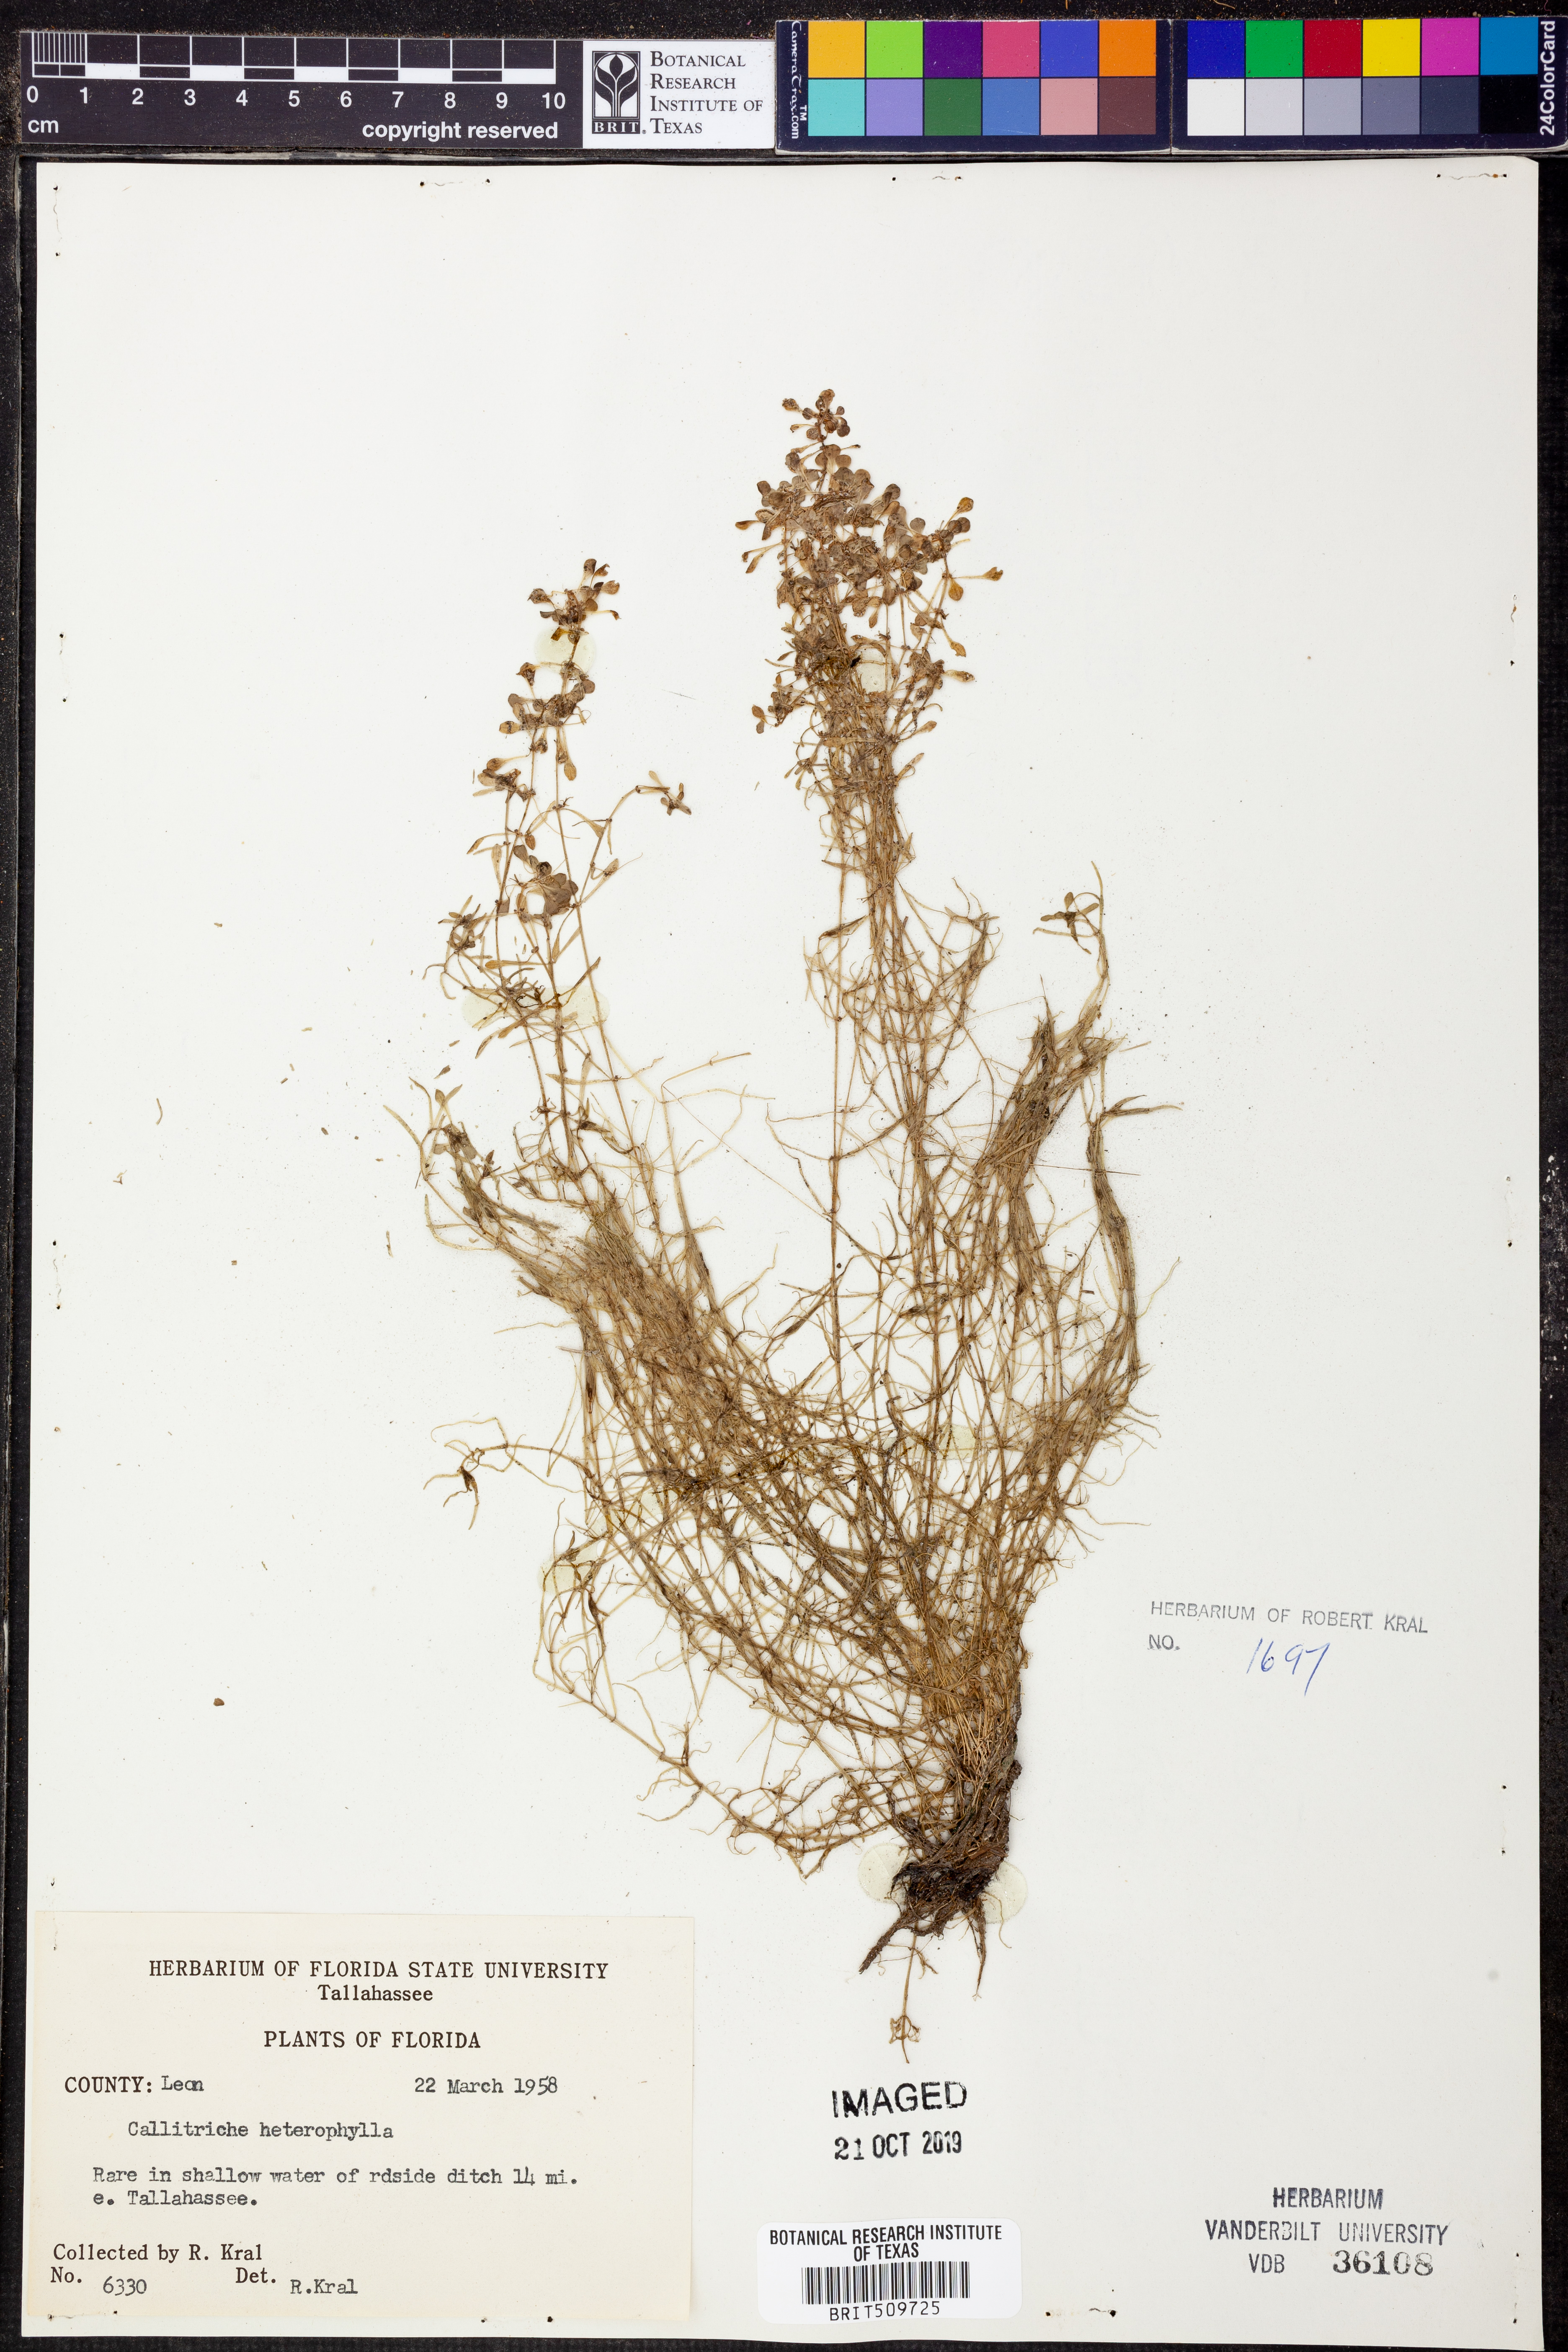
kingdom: Plantae
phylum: Tracheophyta
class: Magnoliopsida
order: Lamiales
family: Plantaginaceae
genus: Callitriche
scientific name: Callitriche heterophylla
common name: Two-headed water-starwort
